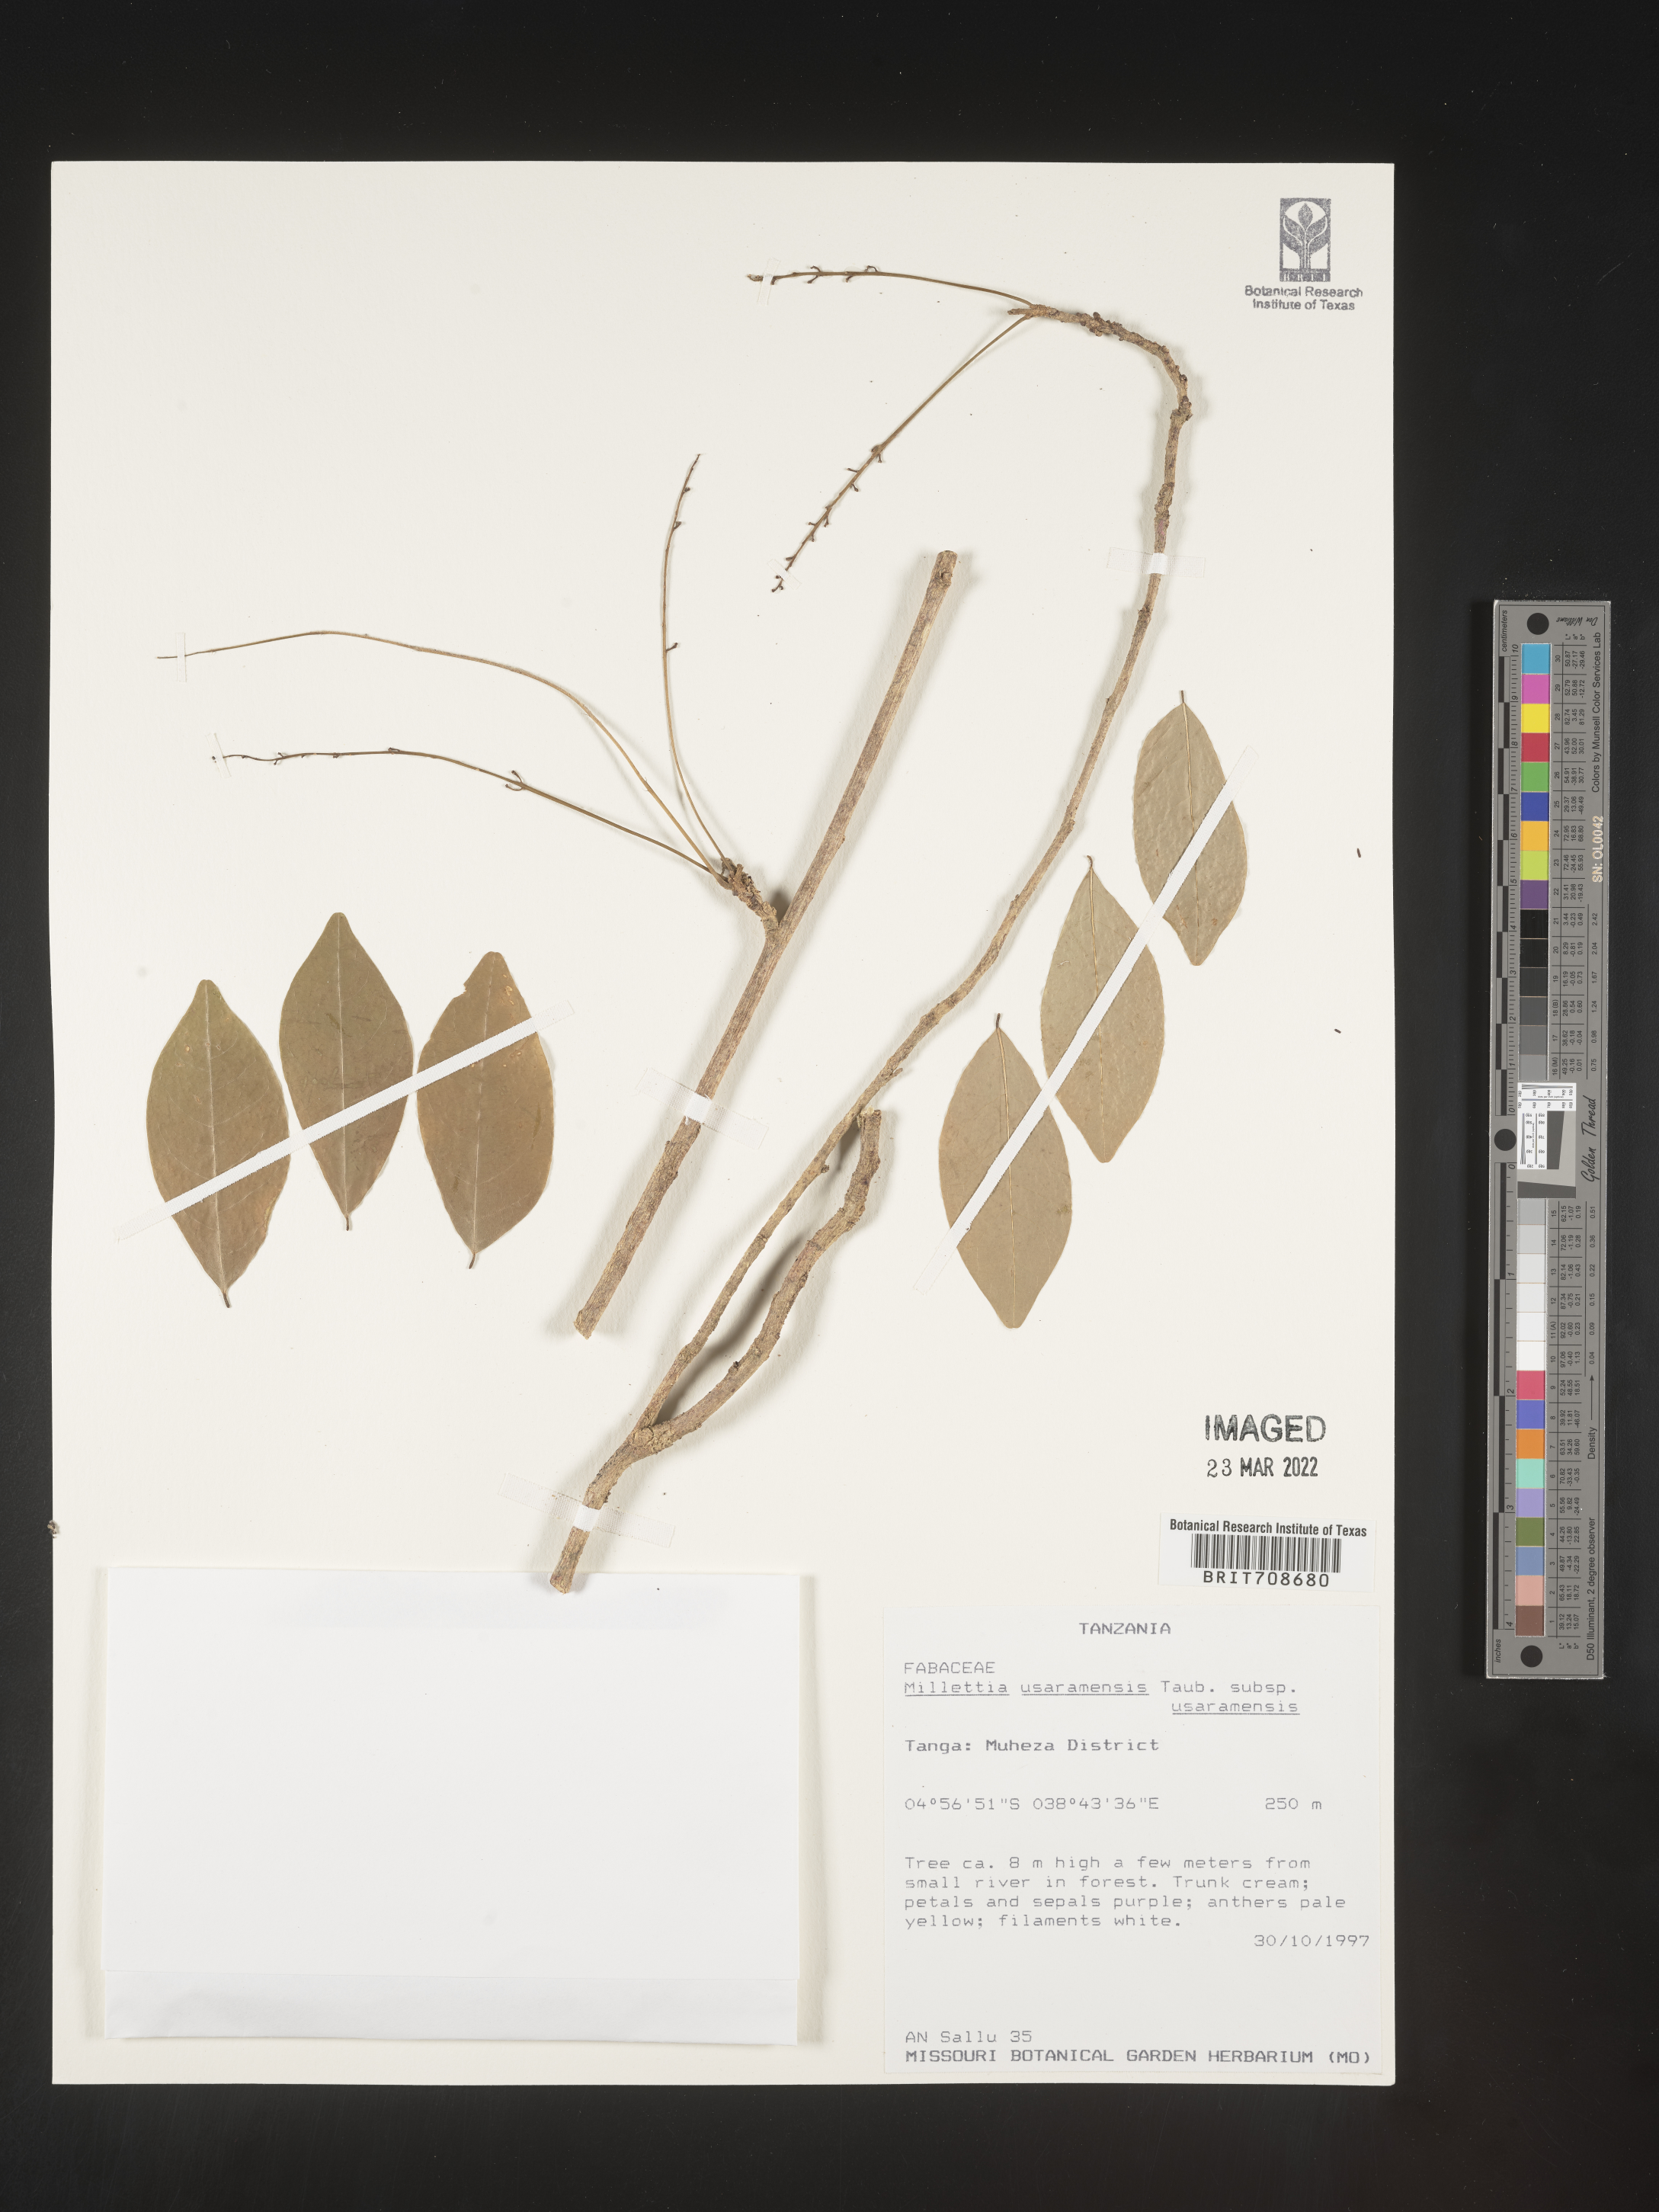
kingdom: Plantae
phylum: Tracheophyta
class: Magnoliopsida
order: Fabales
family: Fabaceae
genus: Millettia
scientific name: Millettia
